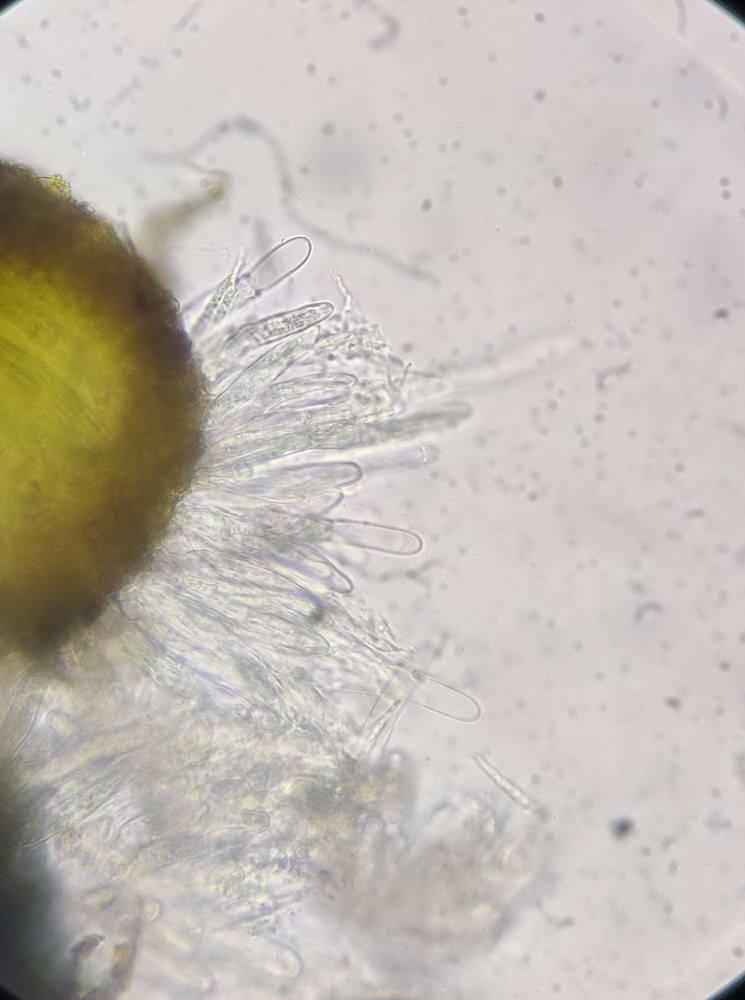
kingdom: Fungi
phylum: Ascomycota
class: Dothideomycetes
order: Tubeufiales
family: Tubeufiaceae
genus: Tubeufia
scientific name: Tubeufia cerea
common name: gulbrun tyksækkrukke
